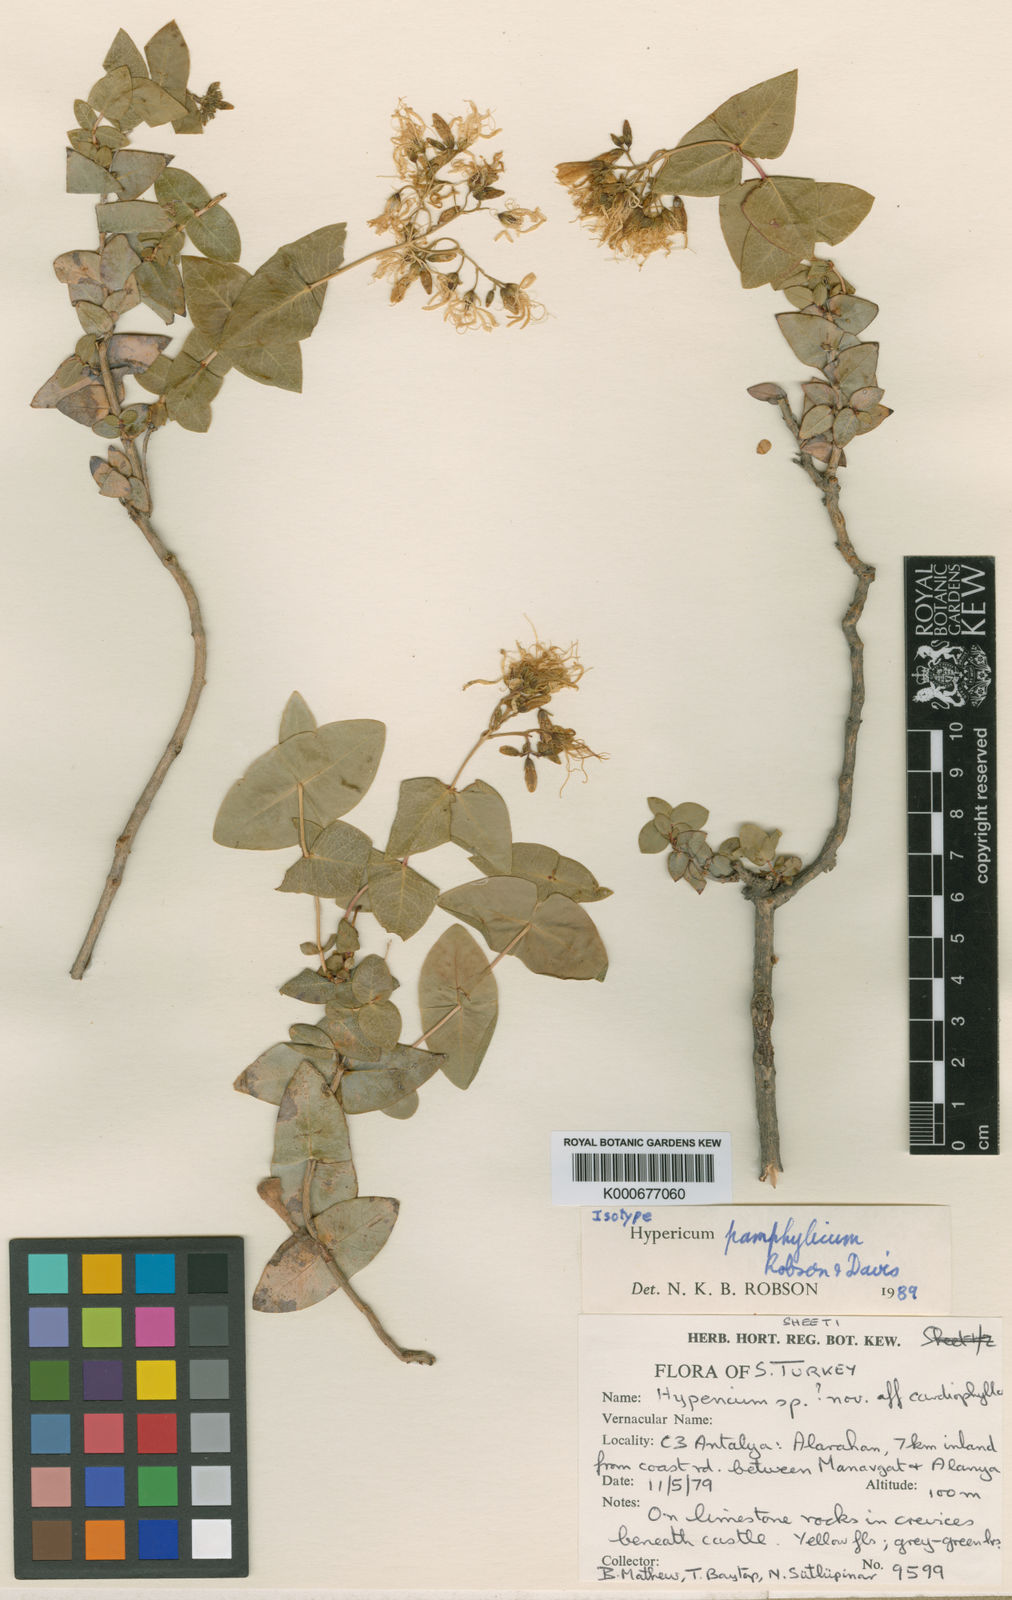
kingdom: Plantae
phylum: Tracheophyta
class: Magnoliopsida
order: Malpighiales
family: Hypericaceae
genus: Hypericum
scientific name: Hypericum
